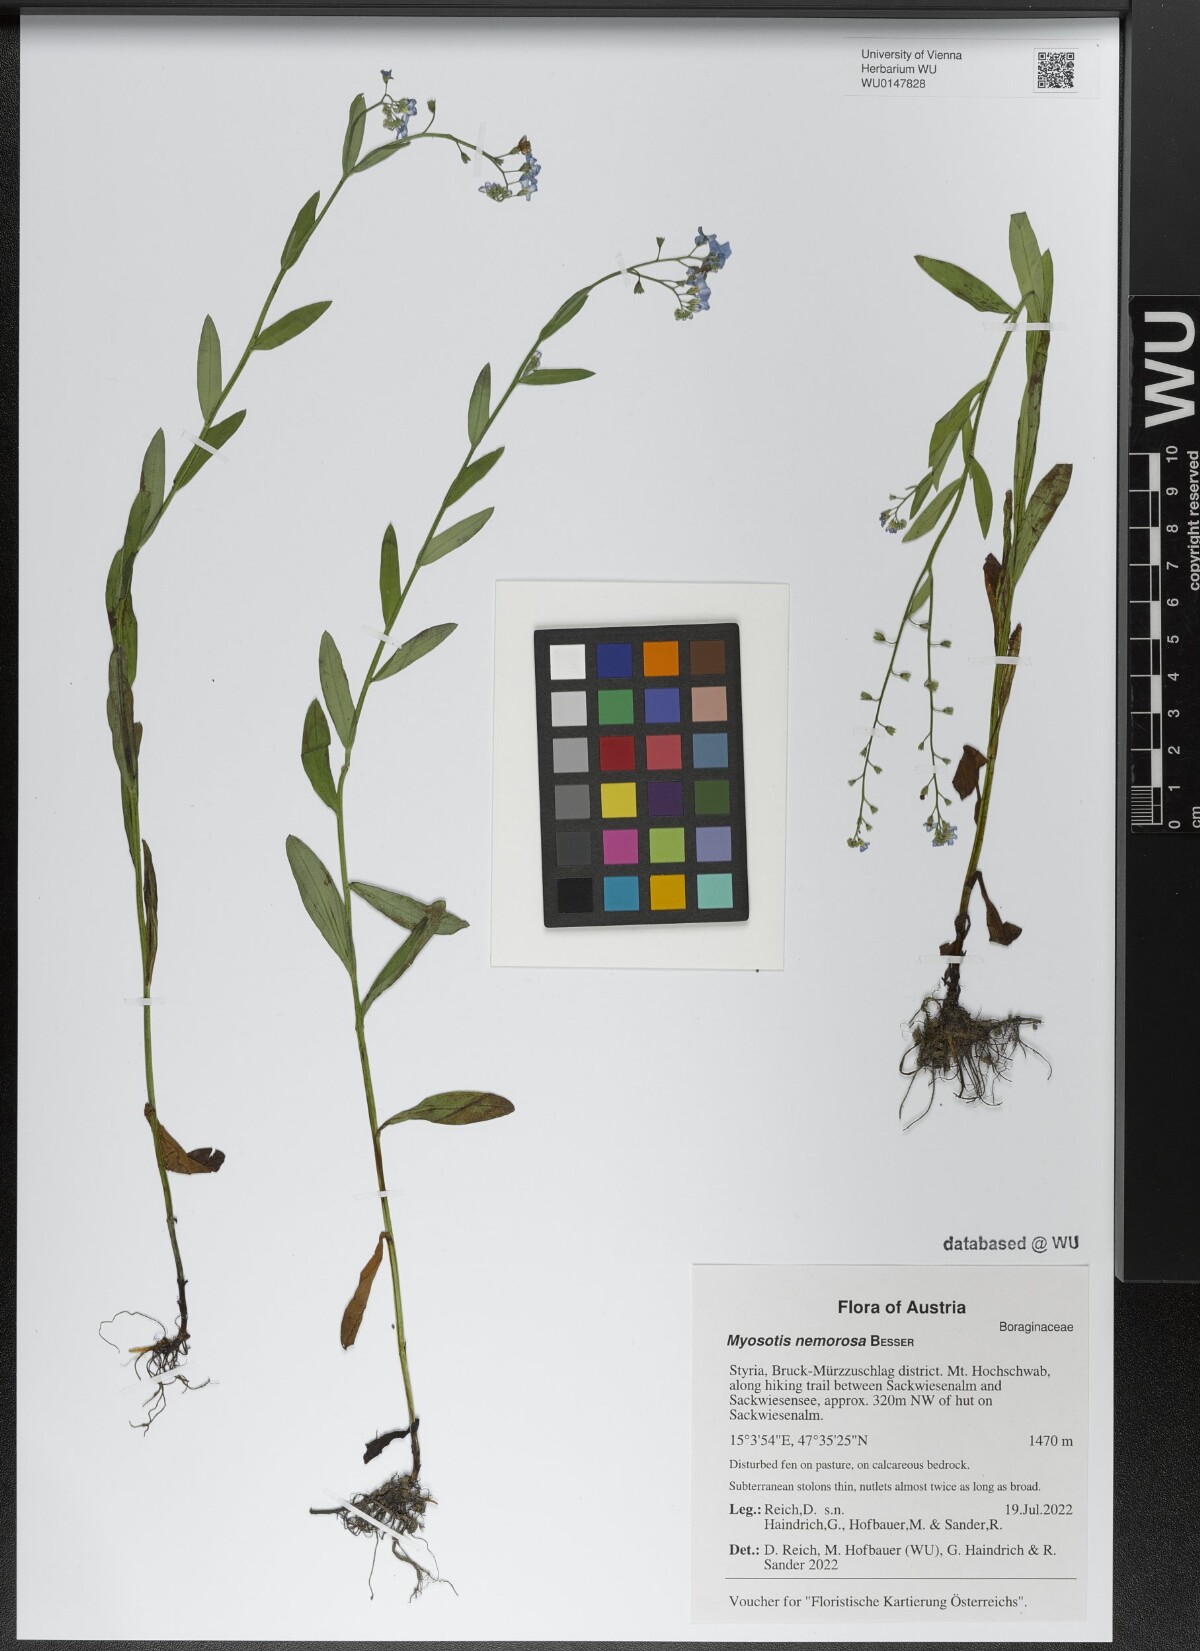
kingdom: Plantae
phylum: Tracheophyta
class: Magnoliopsida
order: Boraginales
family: Boraginaceae
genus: Myosotis
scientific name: Myosotis nemorosa
